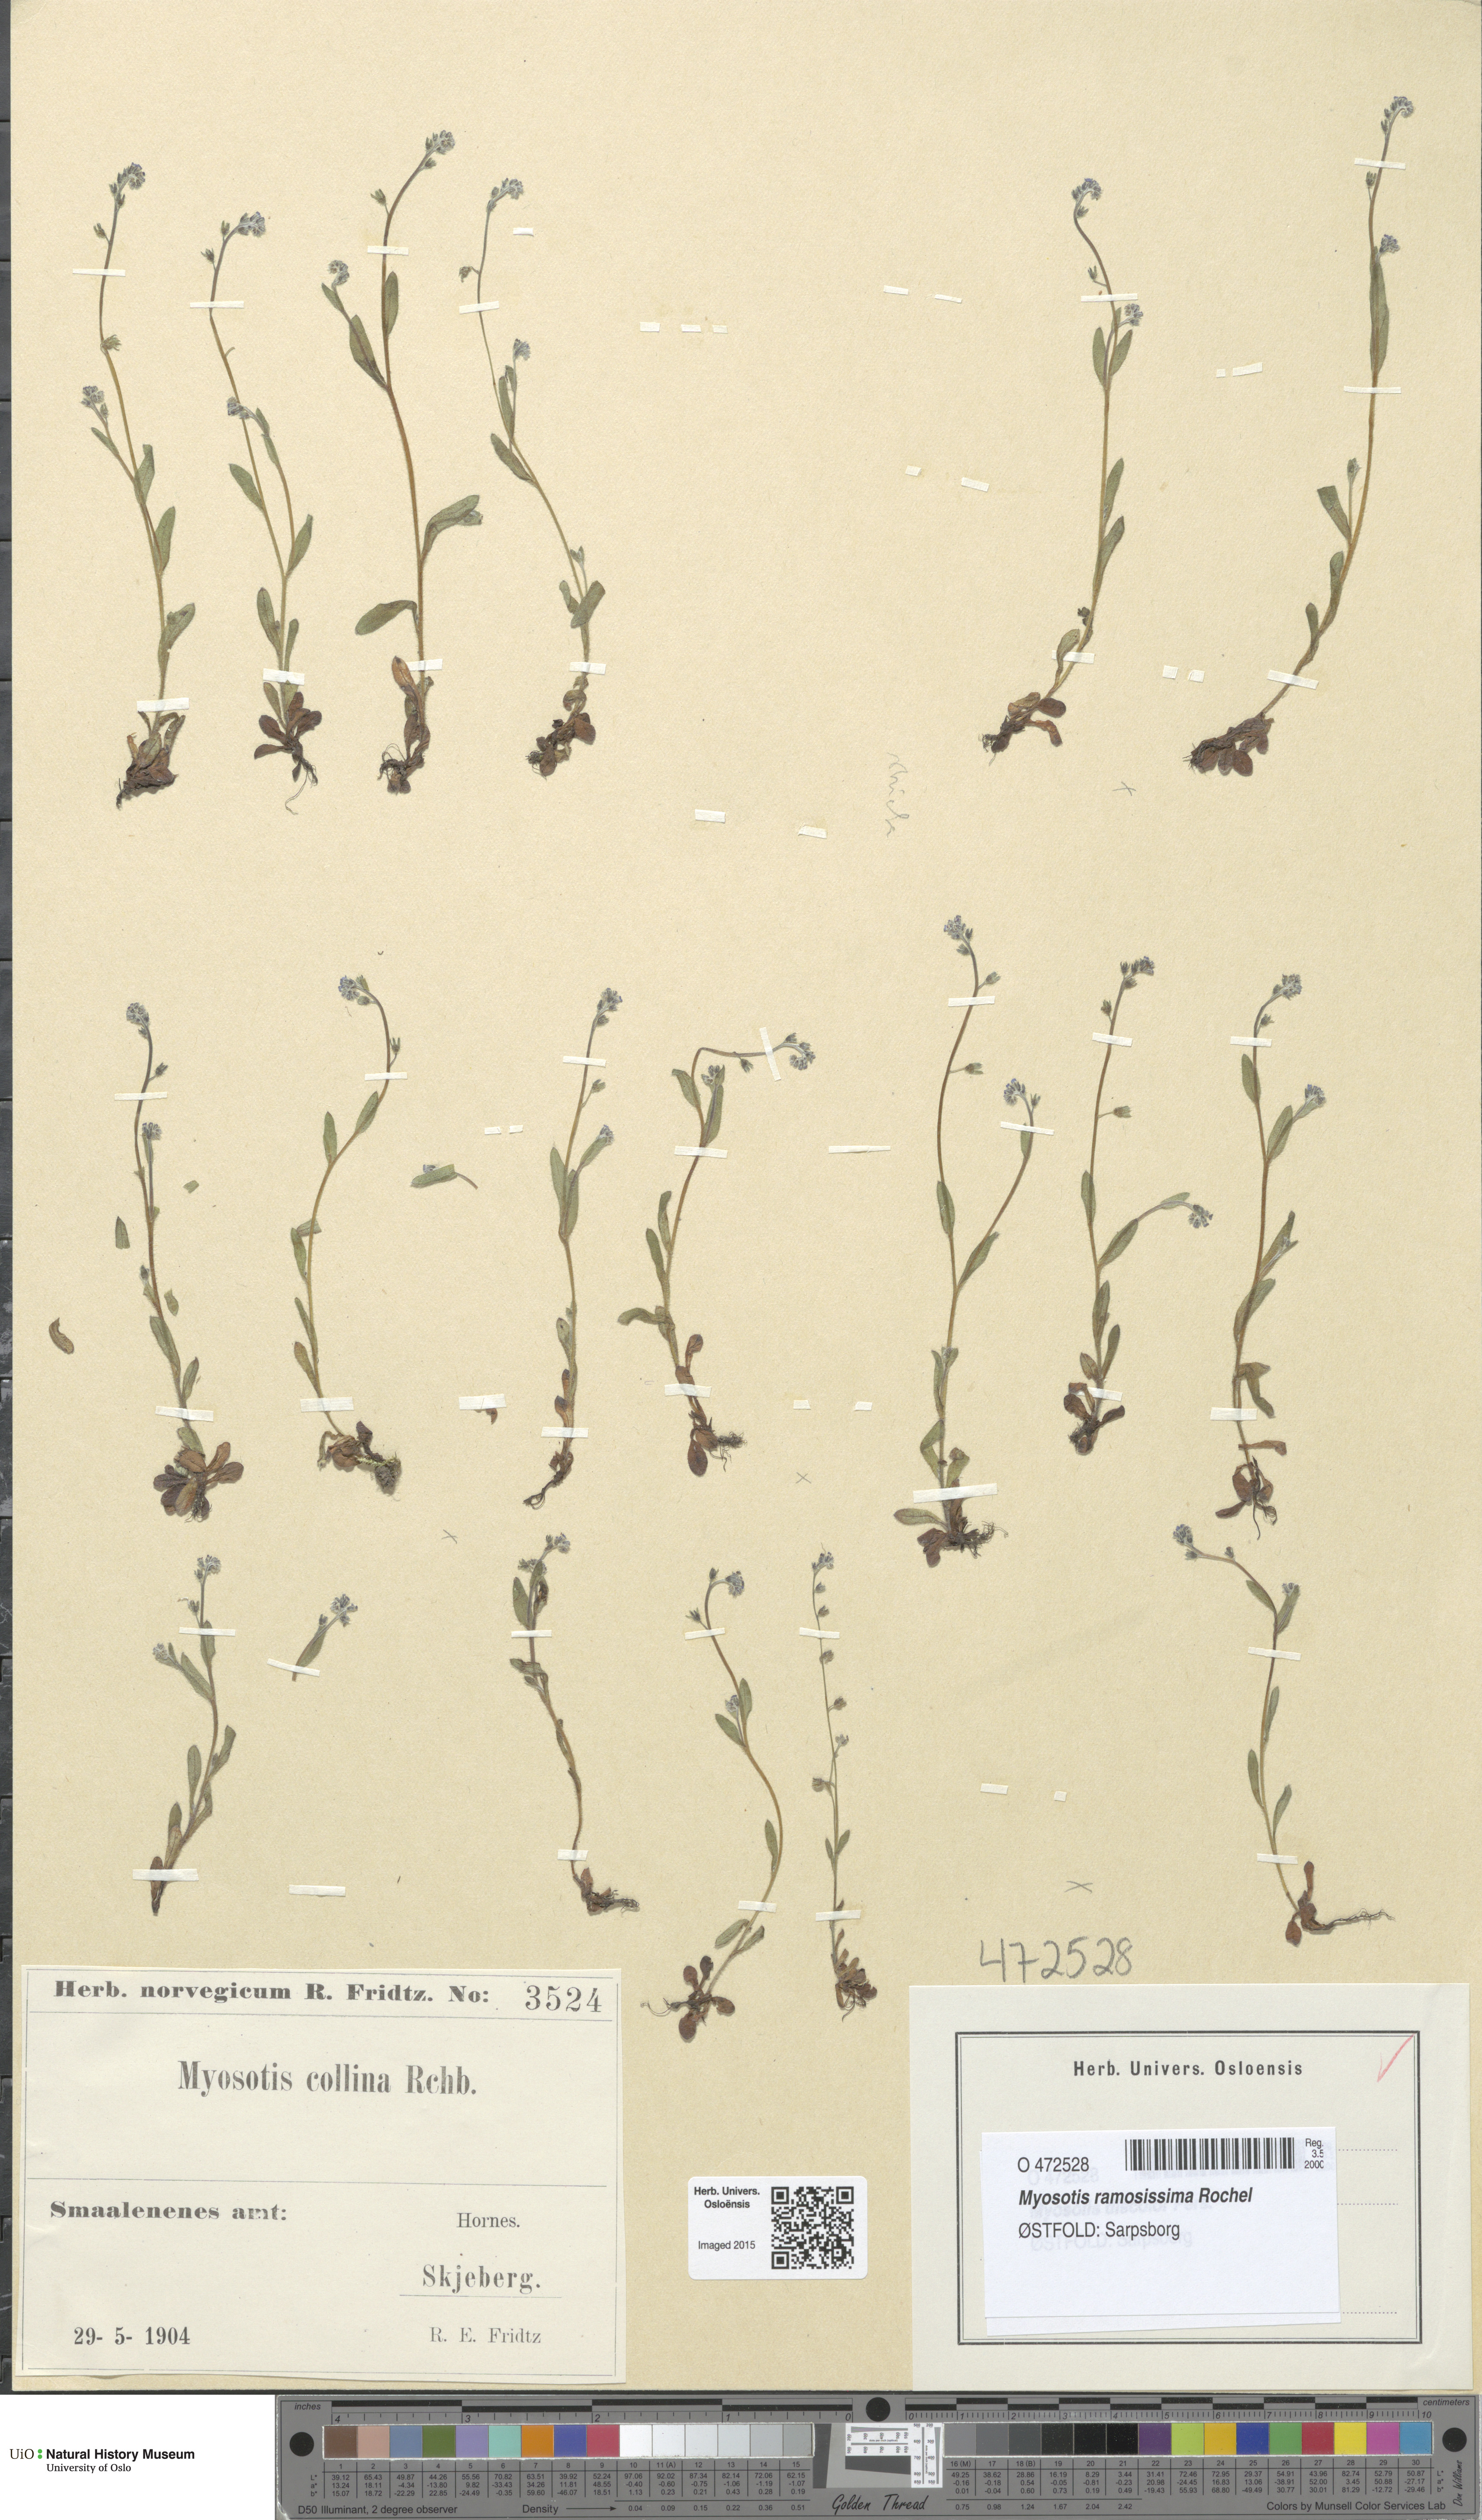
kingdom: Plantae
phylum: Tracheophyta
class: Magnoliopsida
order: Boraginales
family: Boraginaceae
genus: Myosotis
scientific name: Myosotis ramosissima
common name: Early forget-me-not
